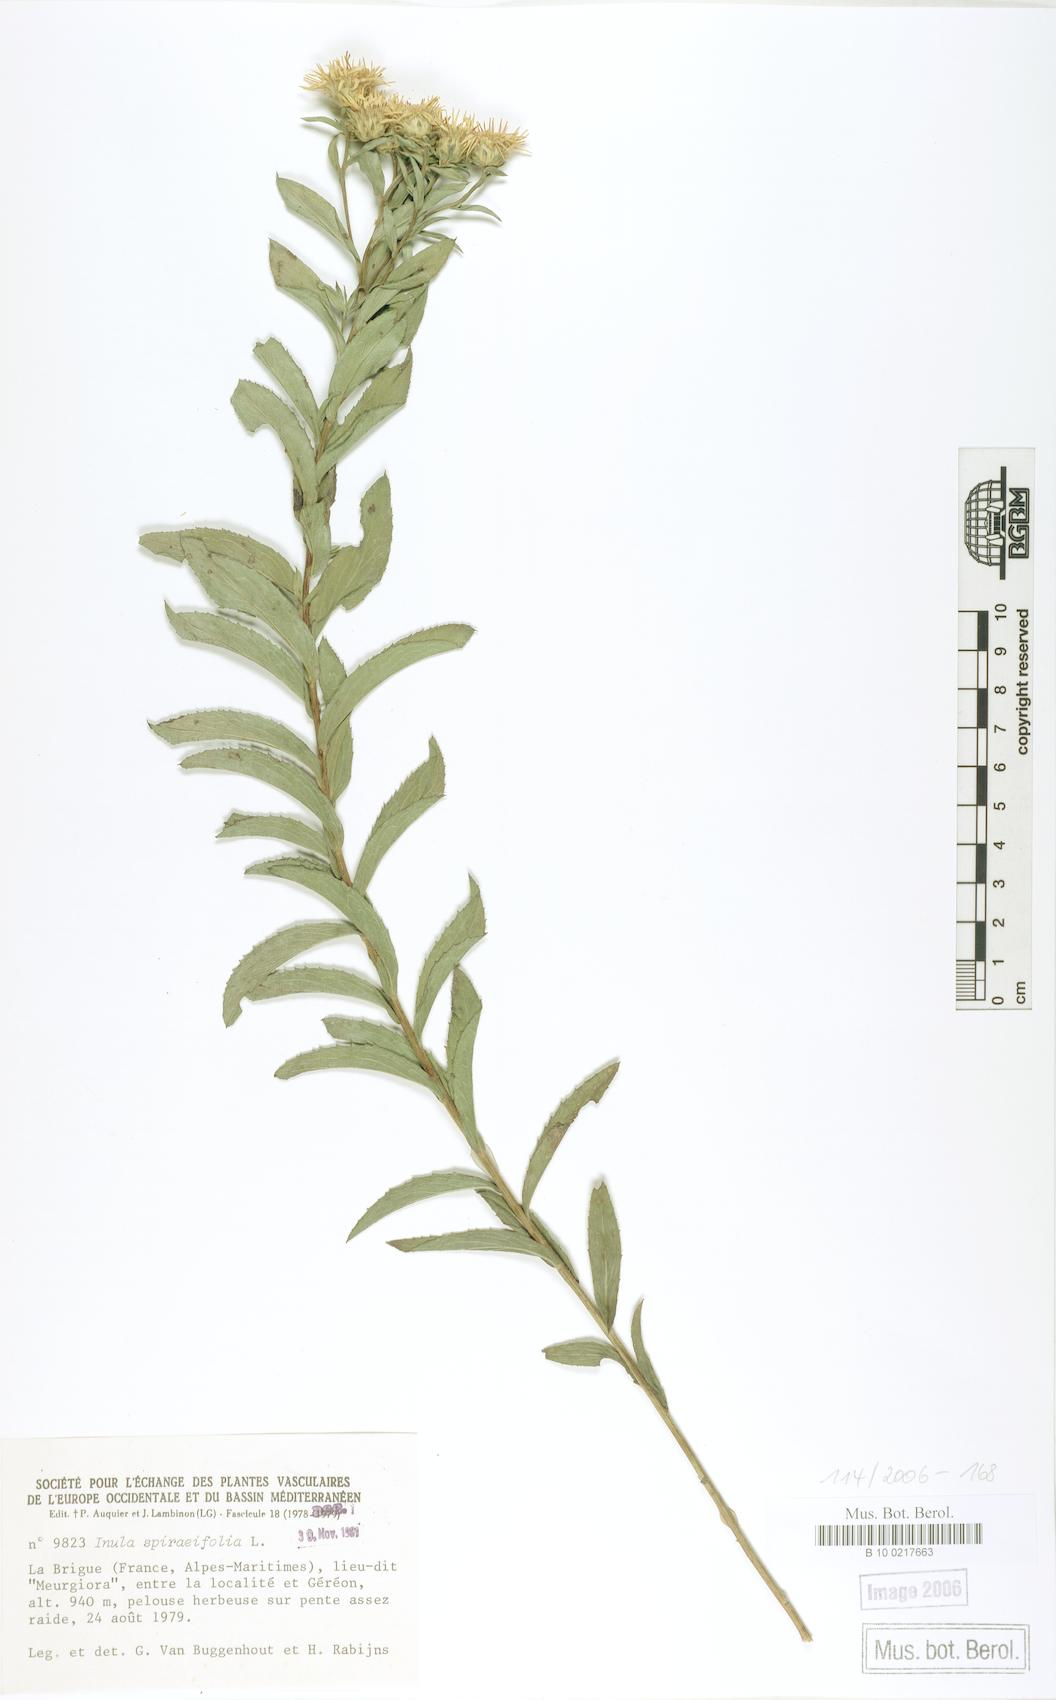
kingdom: Plantae
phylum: Tracheophyta
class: Magnoliopsida
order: Asterales
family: Asteraceae
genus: Pentanema
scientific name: Pentanema spiraeifolium
